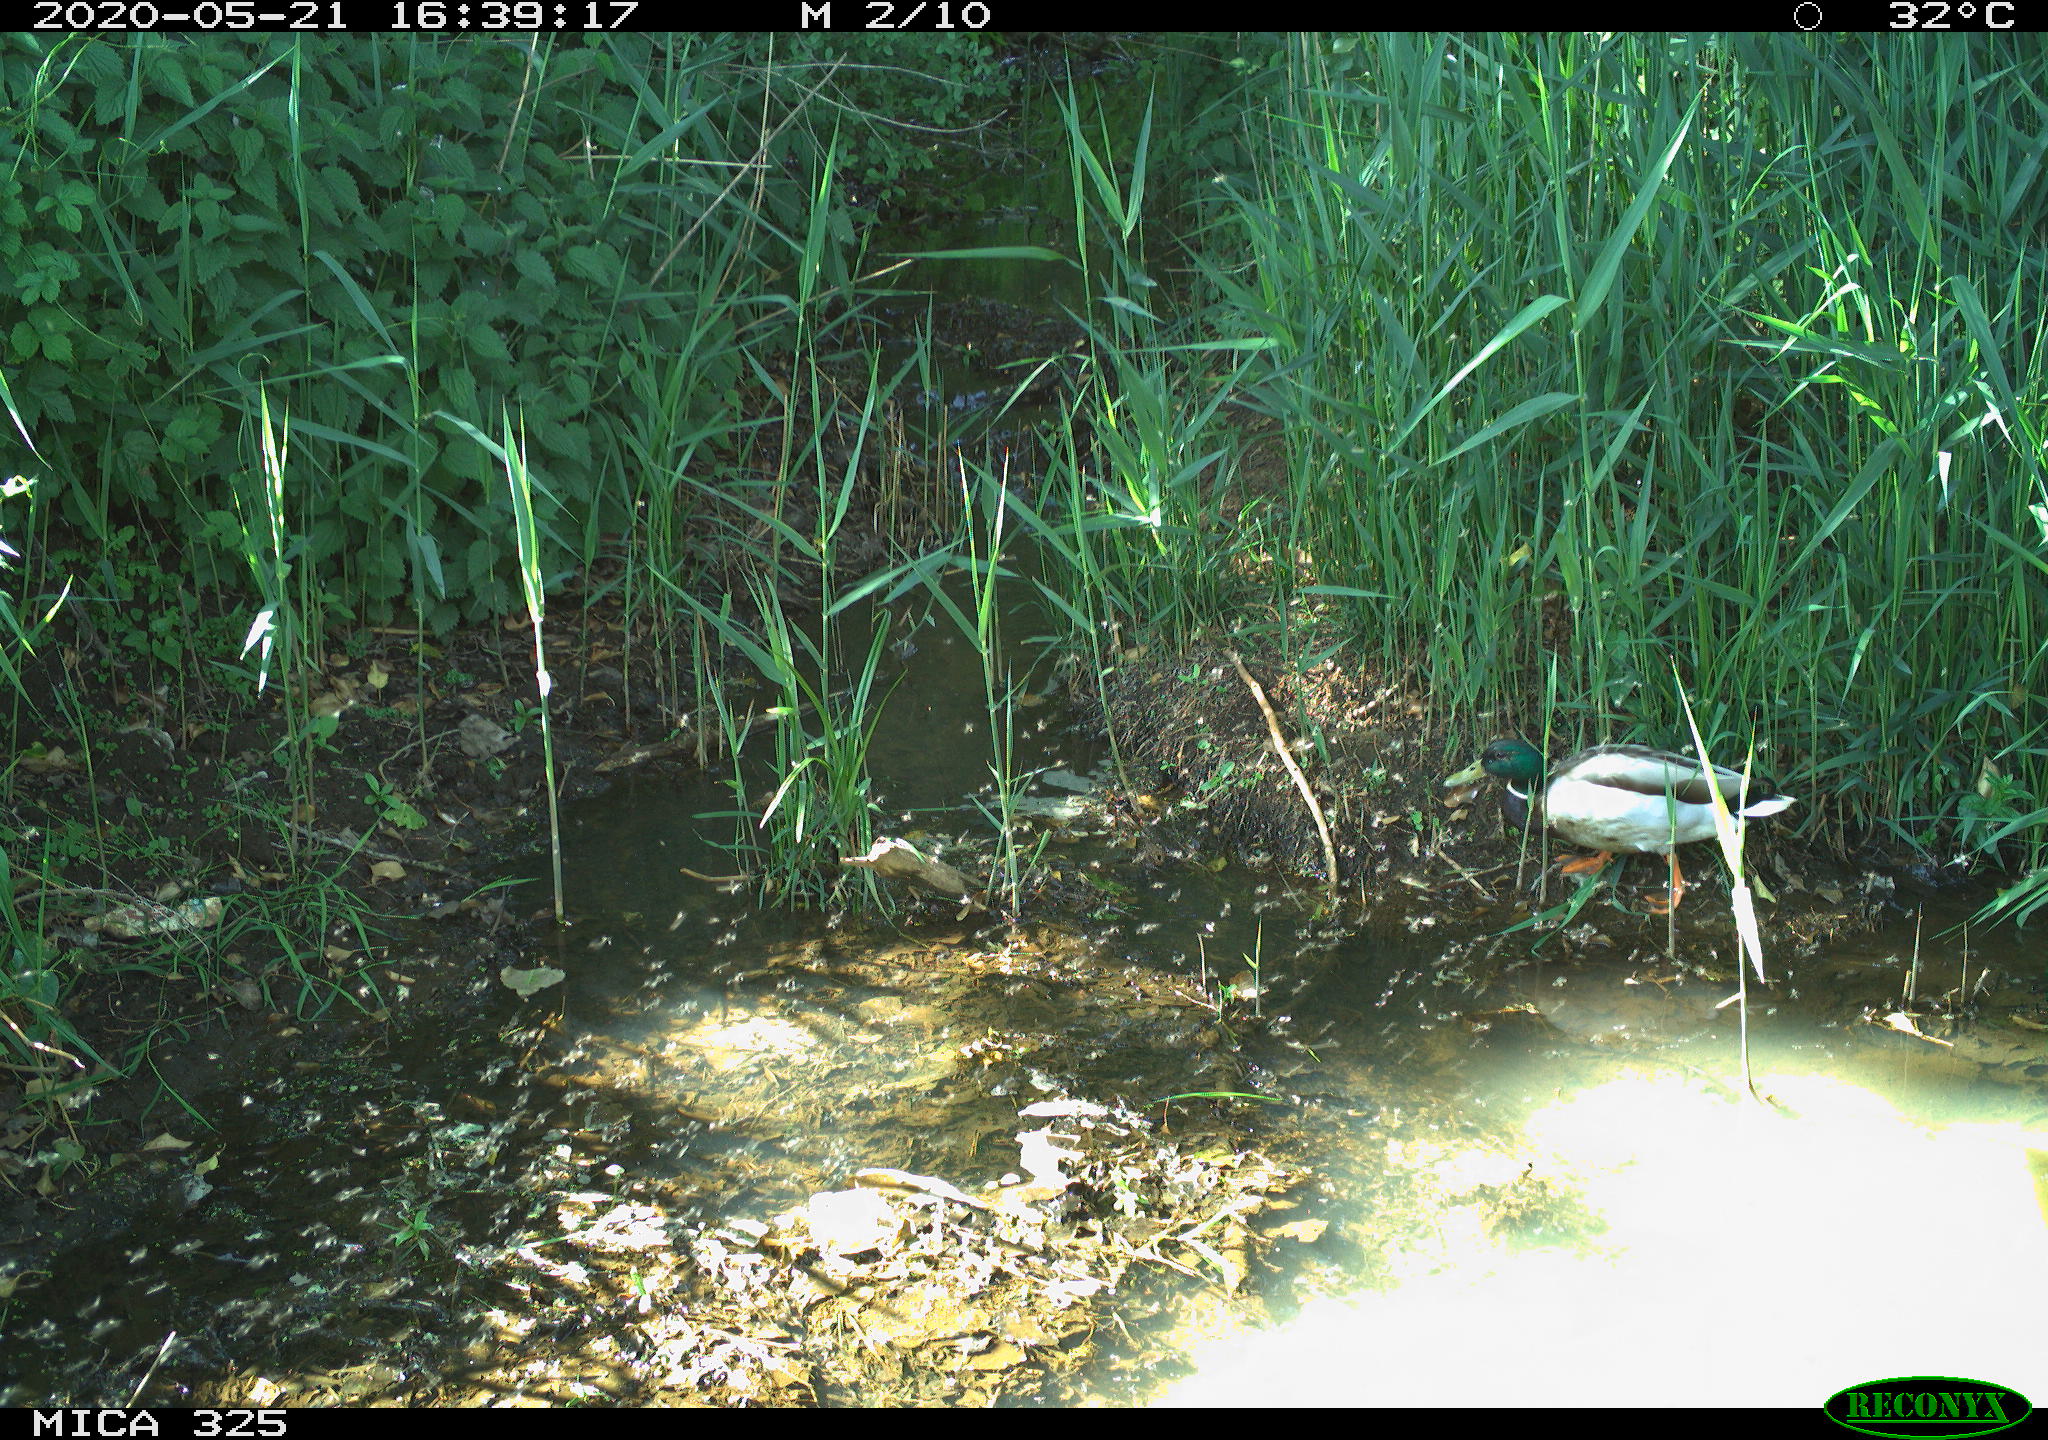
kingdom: Animalia
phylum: Chordata
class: Aves
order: Anseriformes
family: Anatidae
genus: Anas
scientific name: Anas platyrhynchos
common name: Mallard
